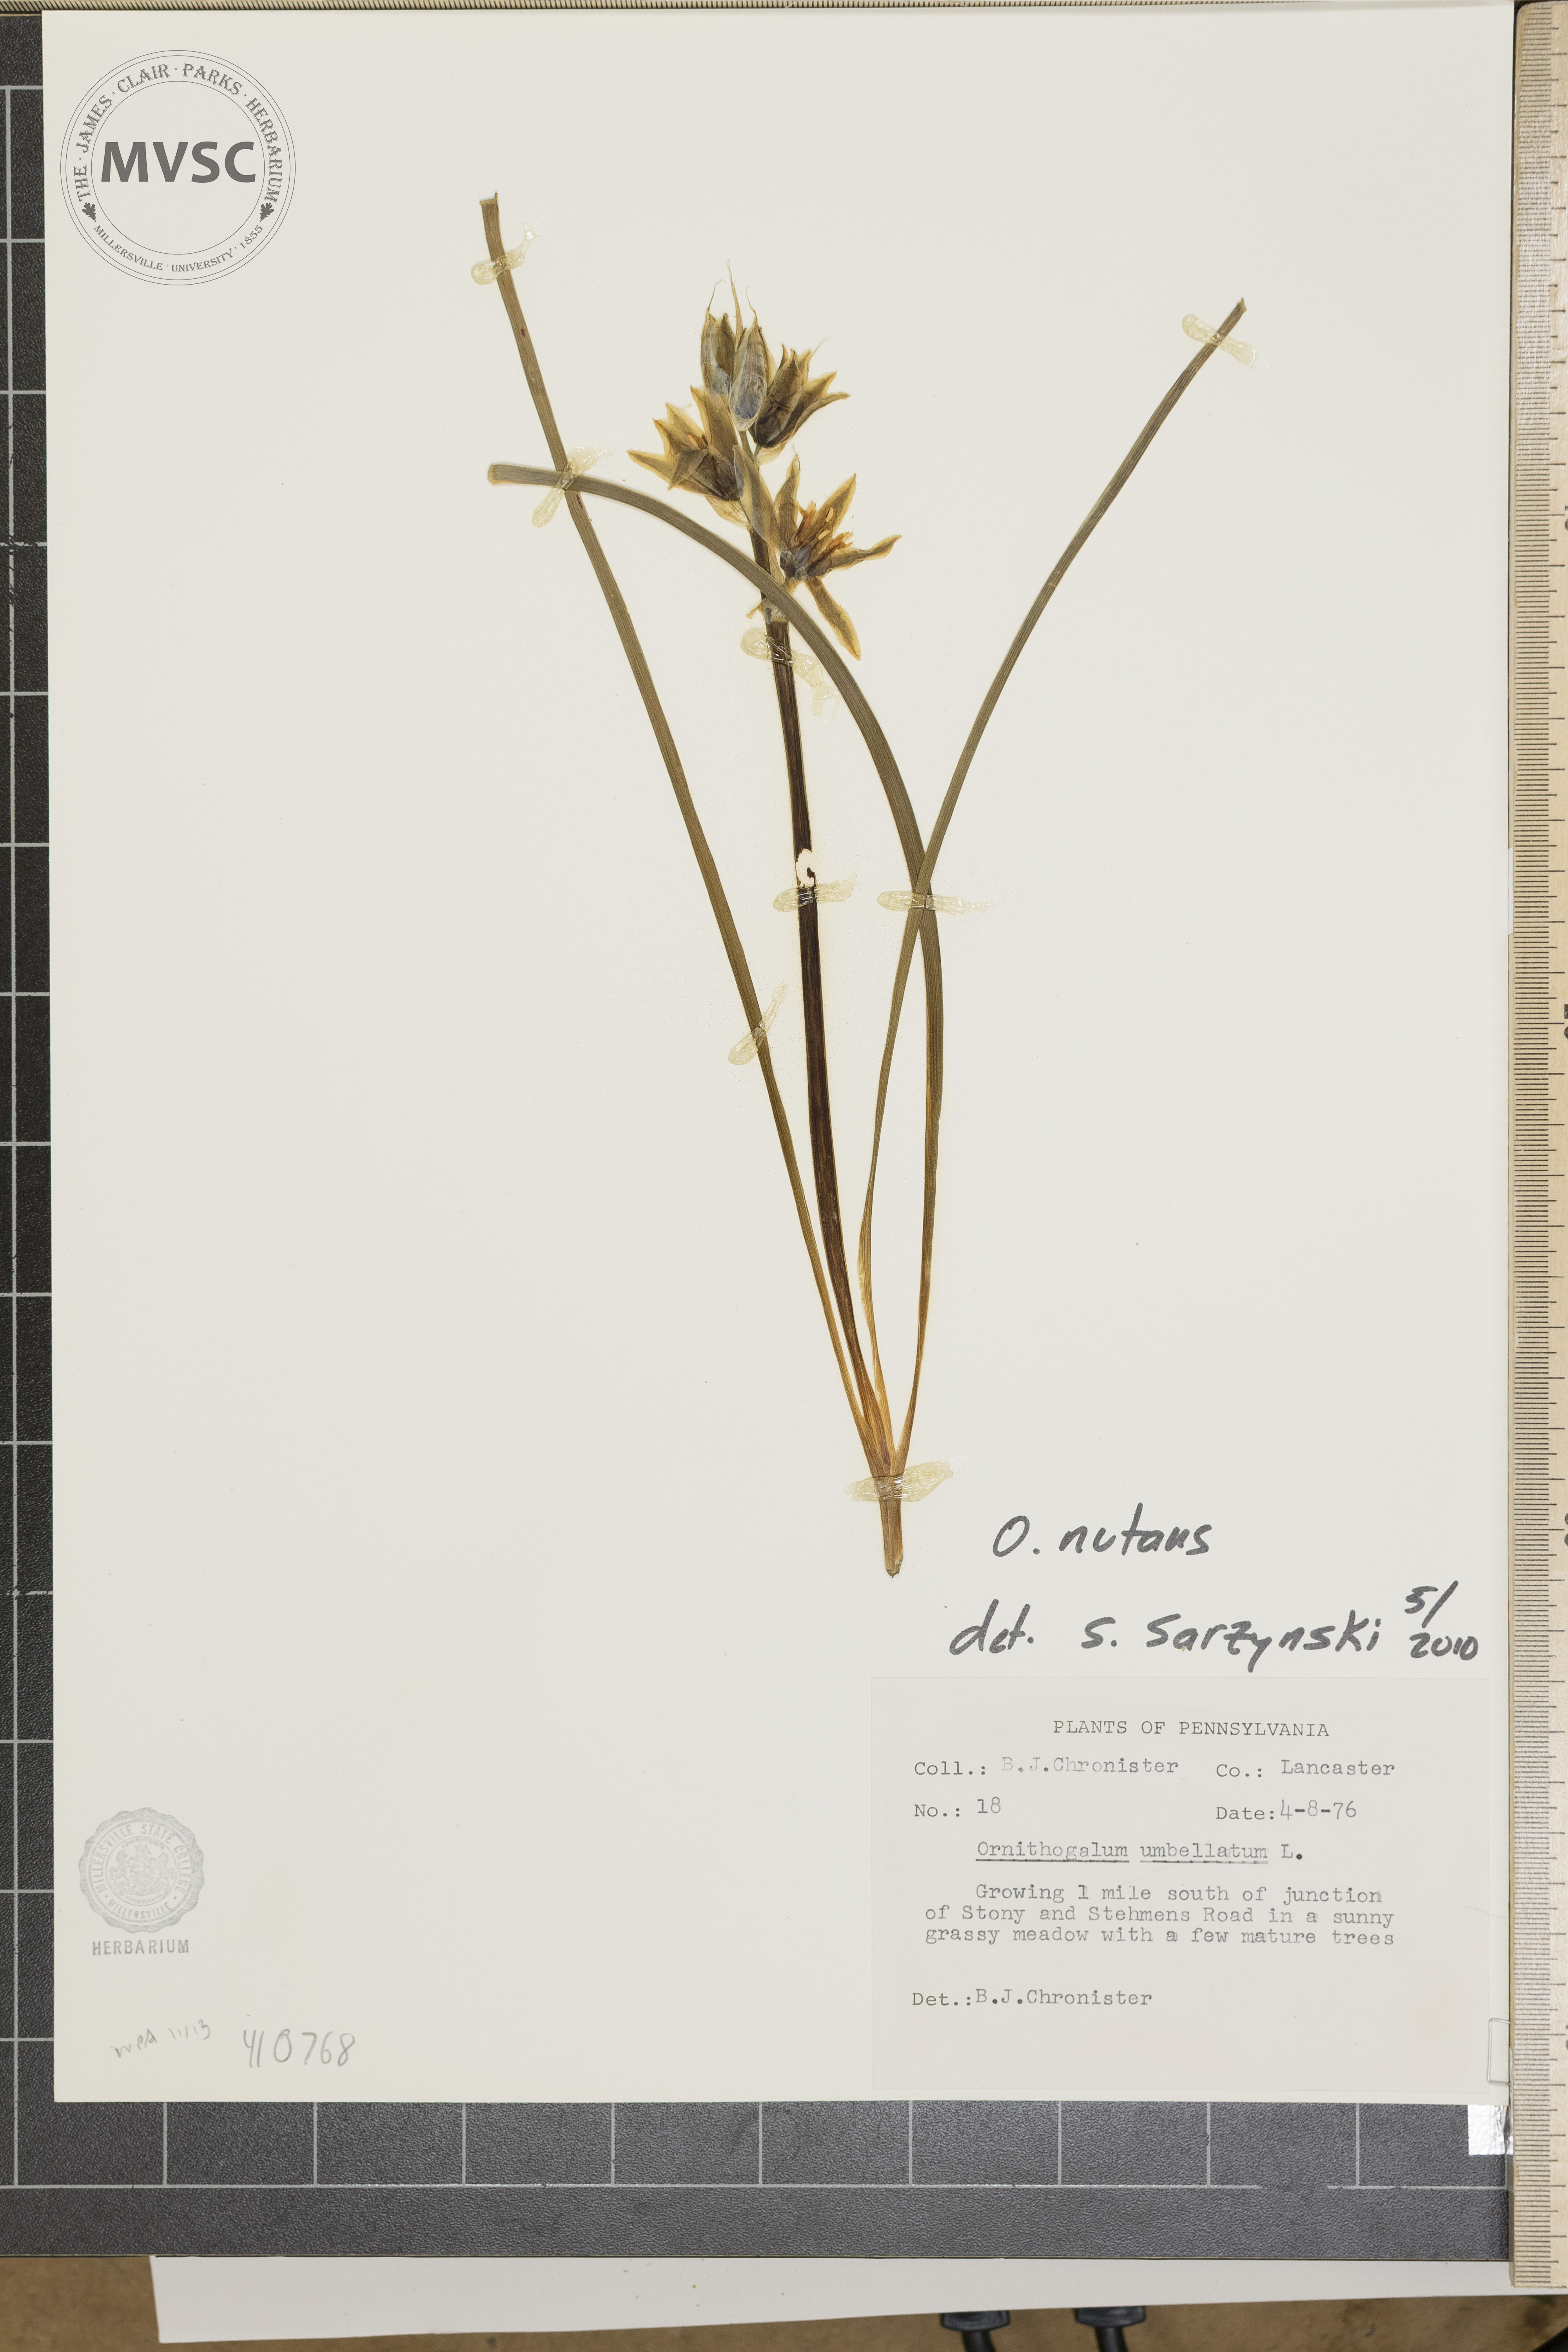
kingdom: Plantae
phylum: Tracheophyta
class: Liliopsida
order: Asparagales
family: Asparagaceae
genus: Ornithogalum
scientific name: Ornithogalum nutans
